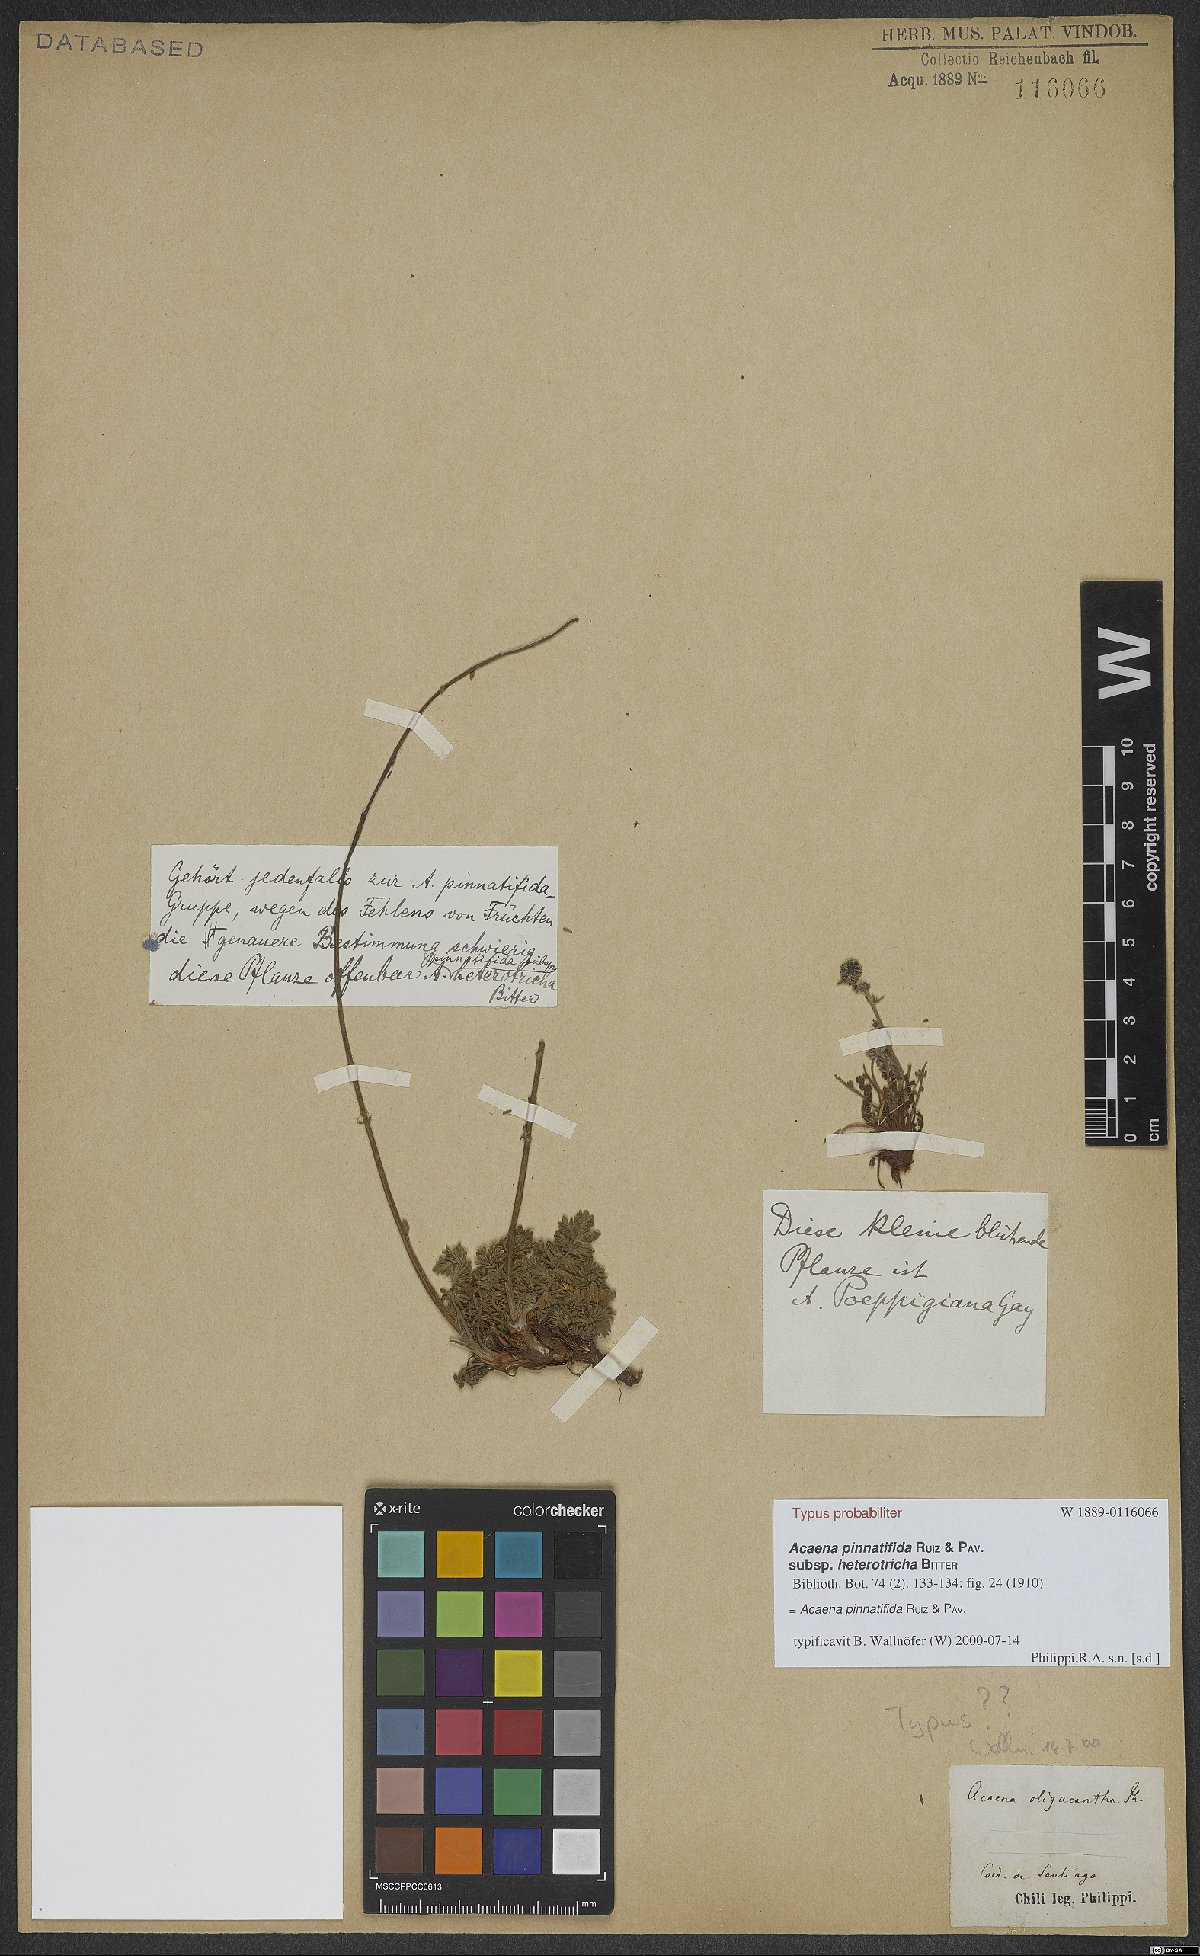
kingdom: Plantae
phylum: Tracheophyta
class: Magnoliopsida
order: Rosales
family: Rosaceae
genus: Acaena
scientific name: Acaena pinnatifida
